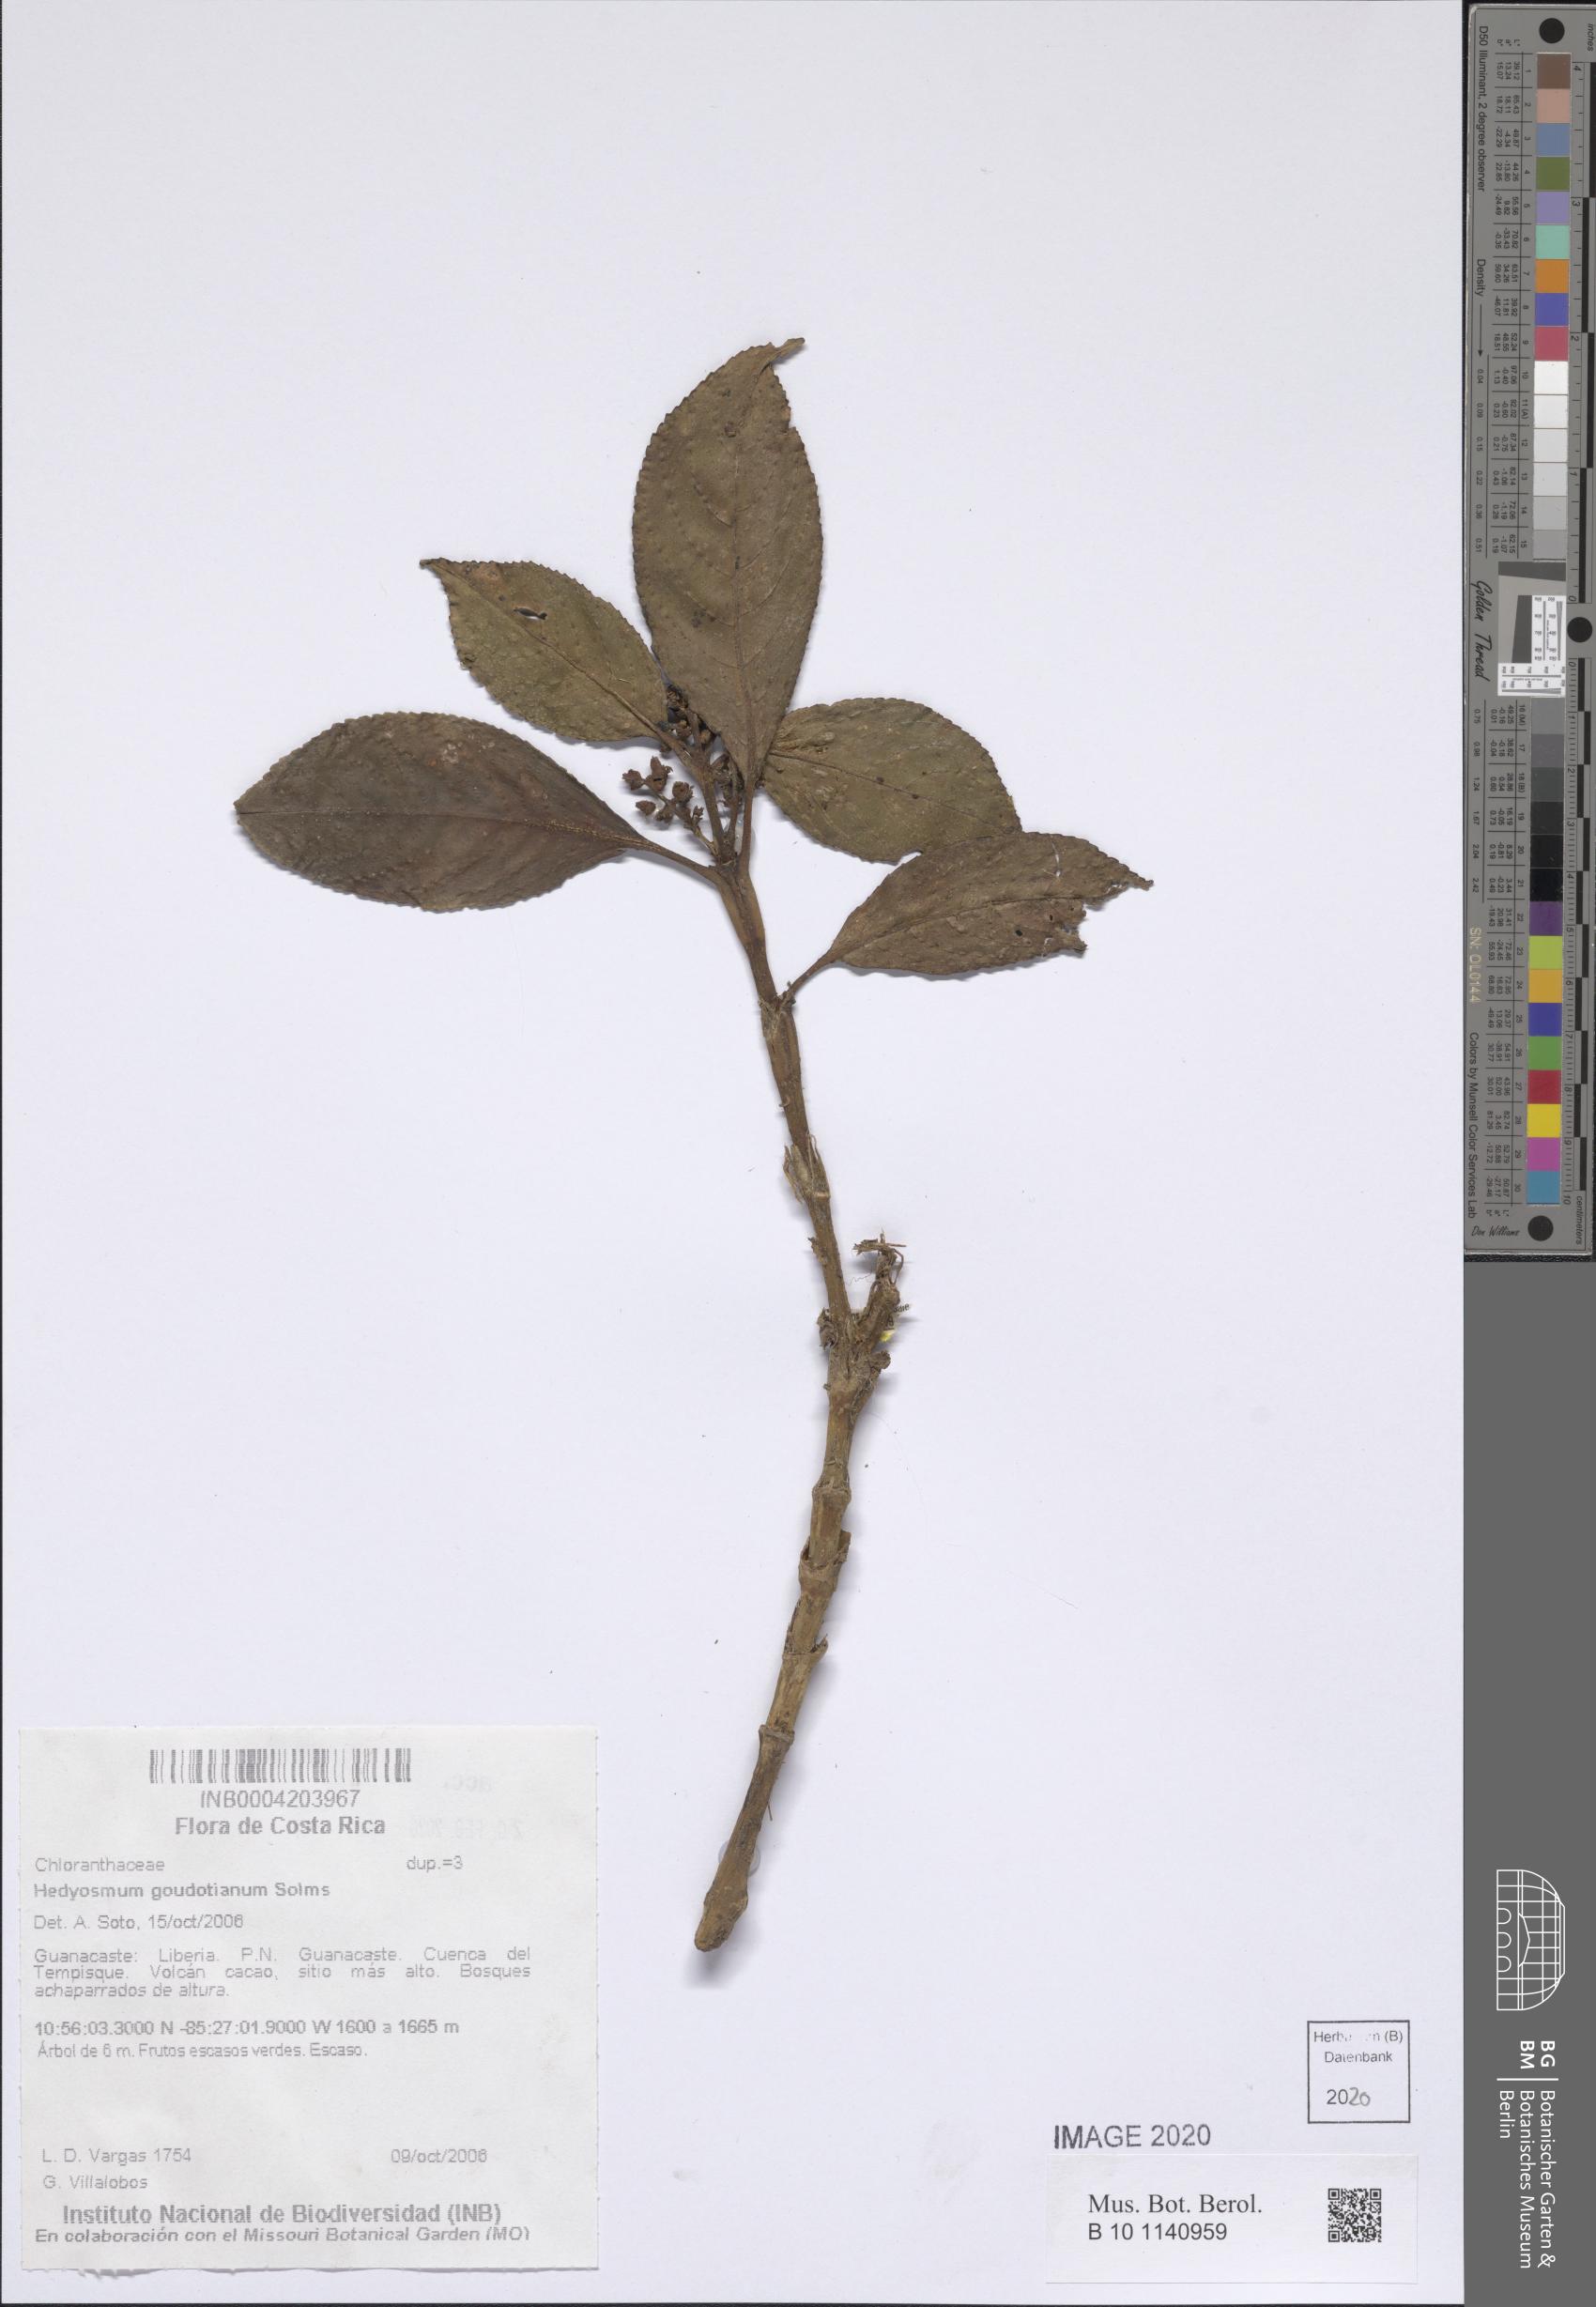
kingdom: Plantae
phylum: Tracheophyta
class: Magnoliopsida
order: Chloranthales
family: Chloranthaceae
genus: Hedyosmum
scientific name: Hedyosmum goudotianum
